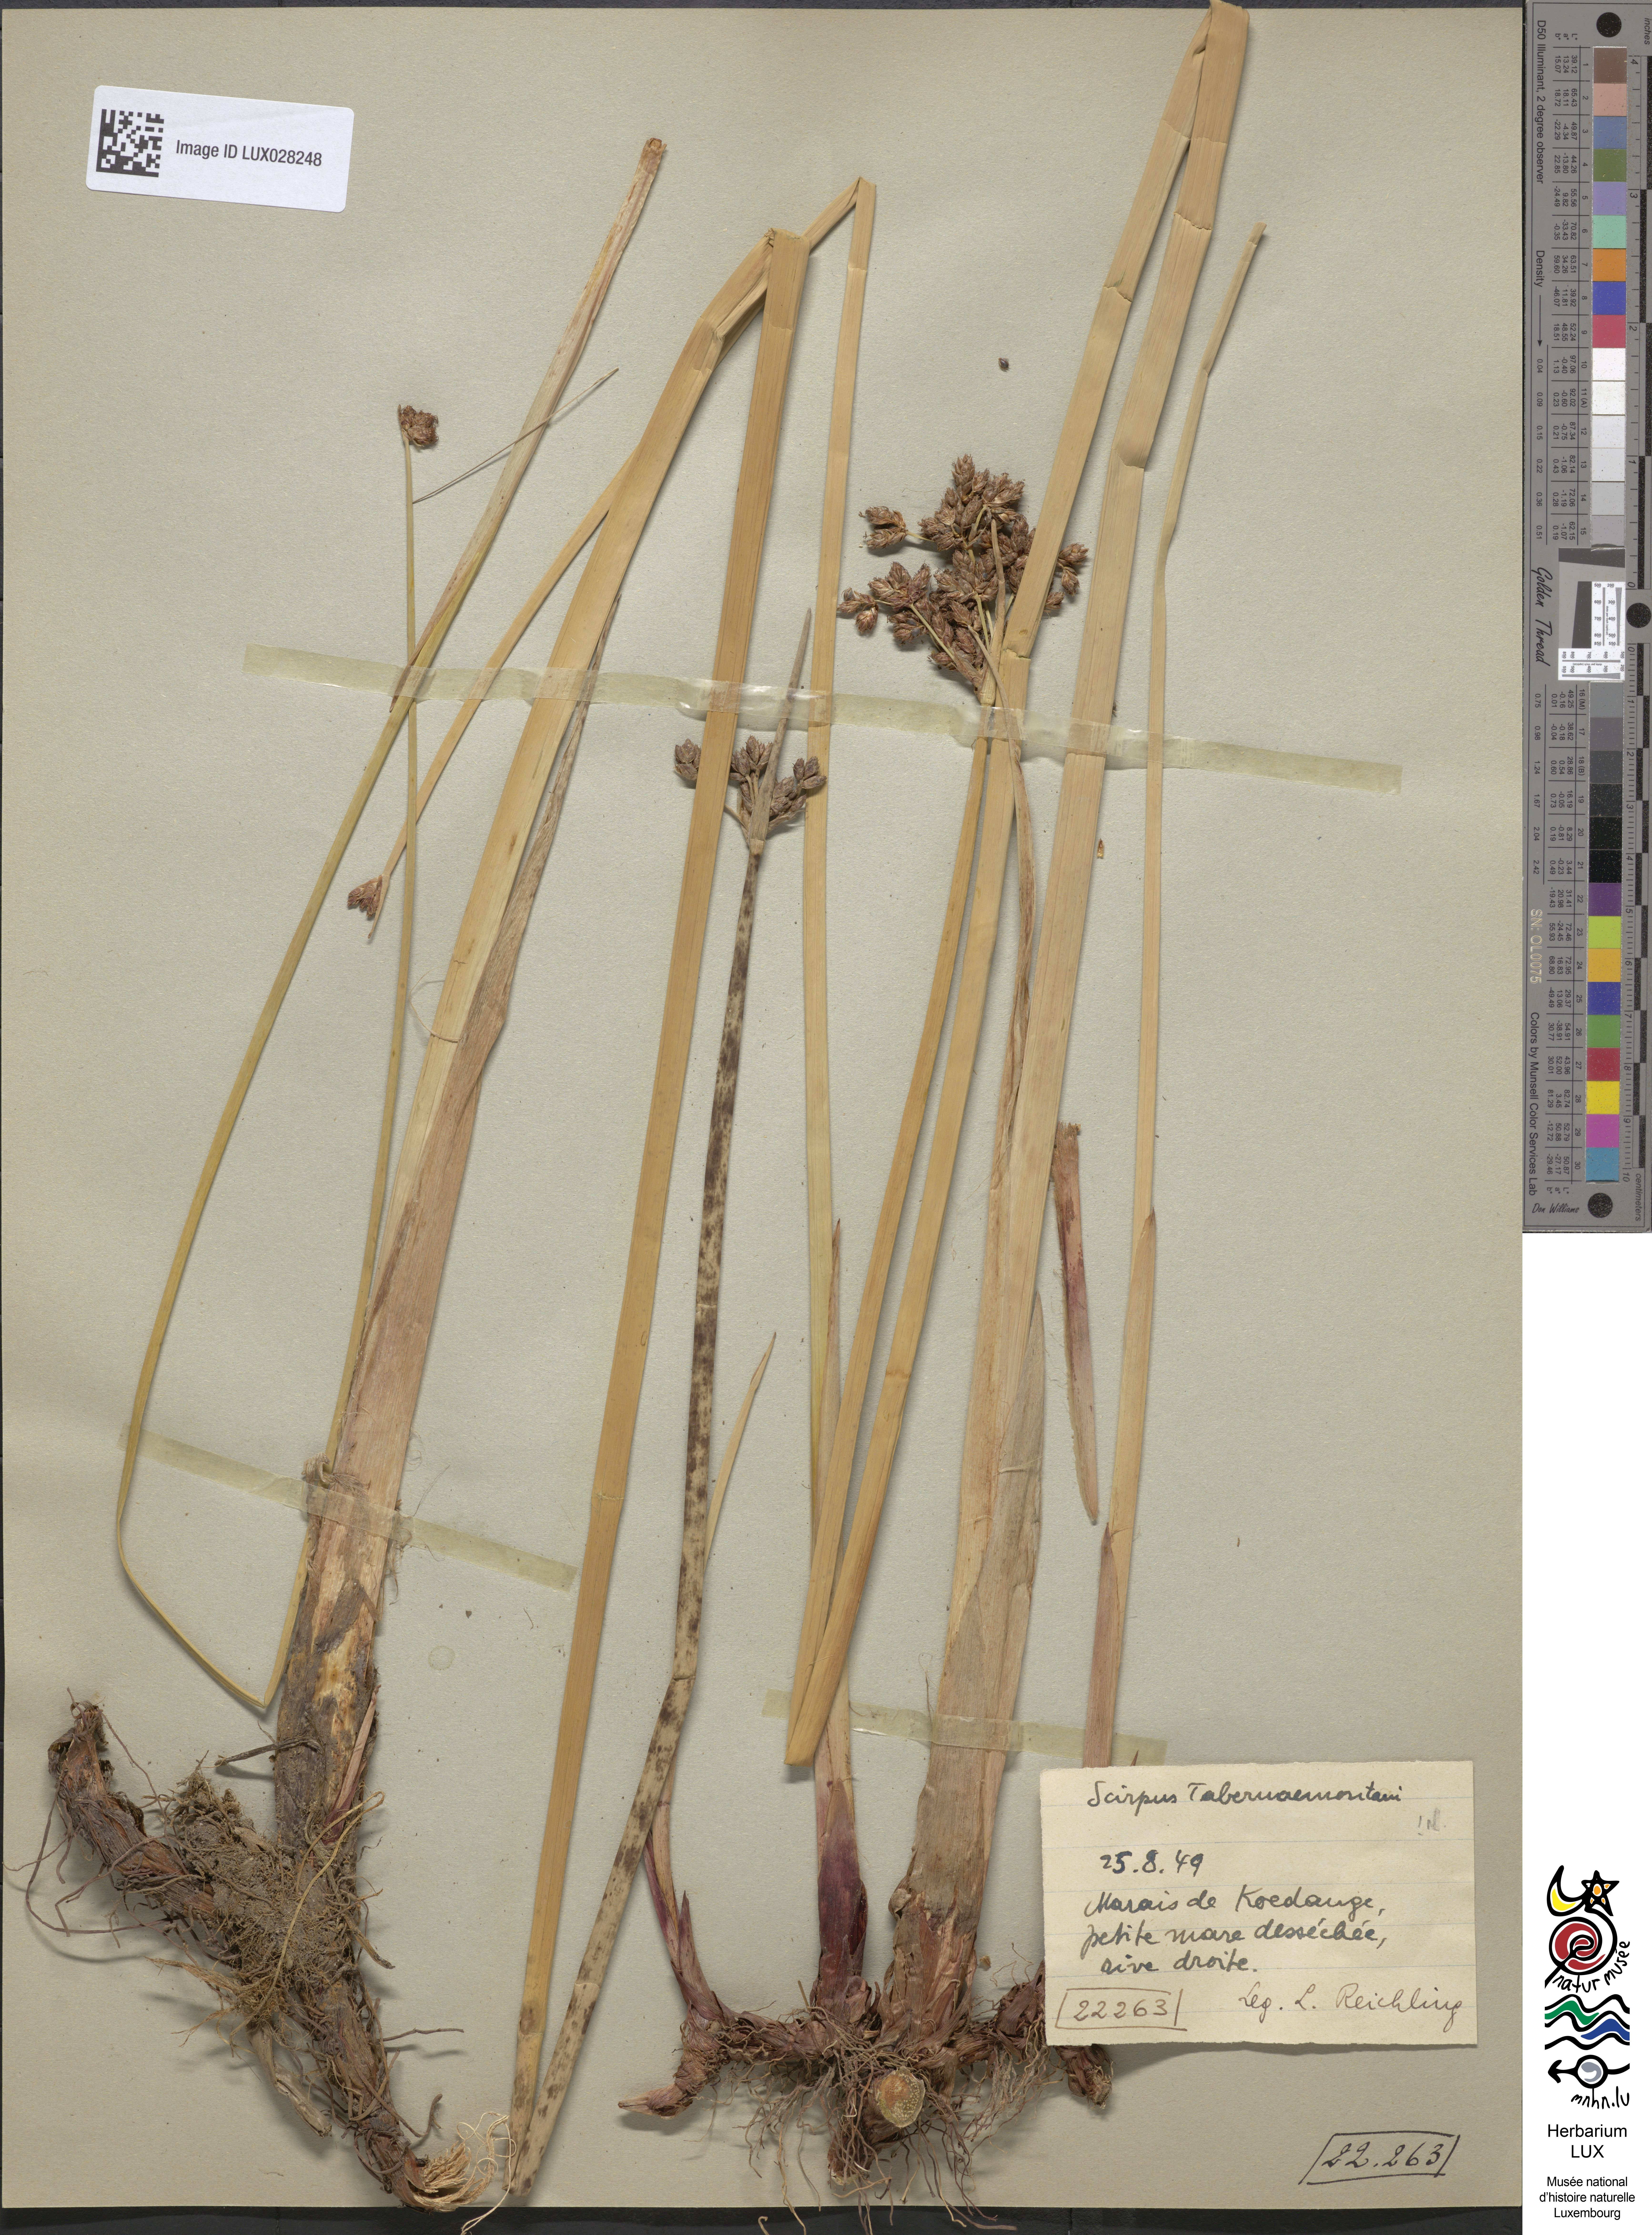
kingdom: Plantae
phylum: Tracheophyta
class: Liliopsida
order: Poales
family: Cyperaceae
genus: Schoenoplectus
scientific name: Schoenoplectus tabernaemontani
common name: Grey club-rush
